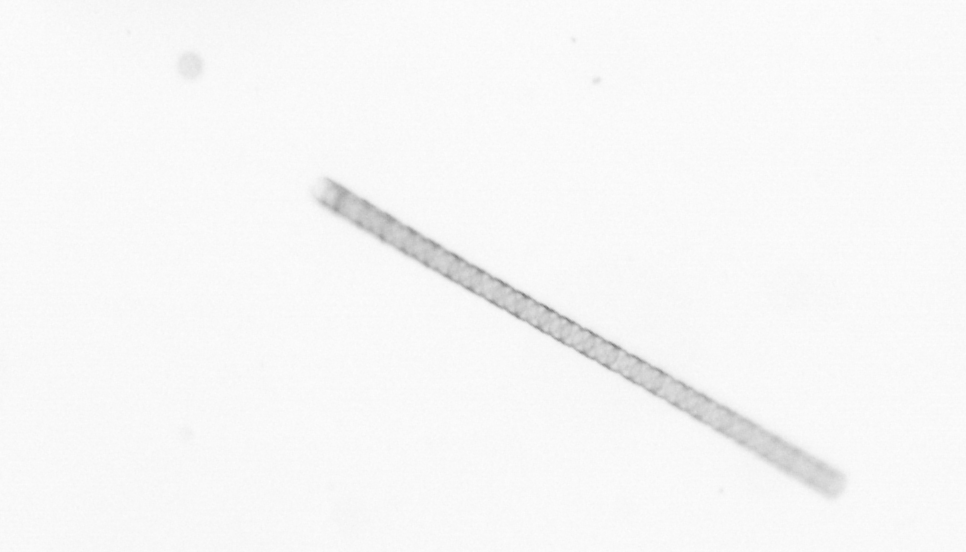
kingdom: Chromista
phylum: Ochrophyta
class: Bacillariophyceae
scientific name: Bacillariophyceae
